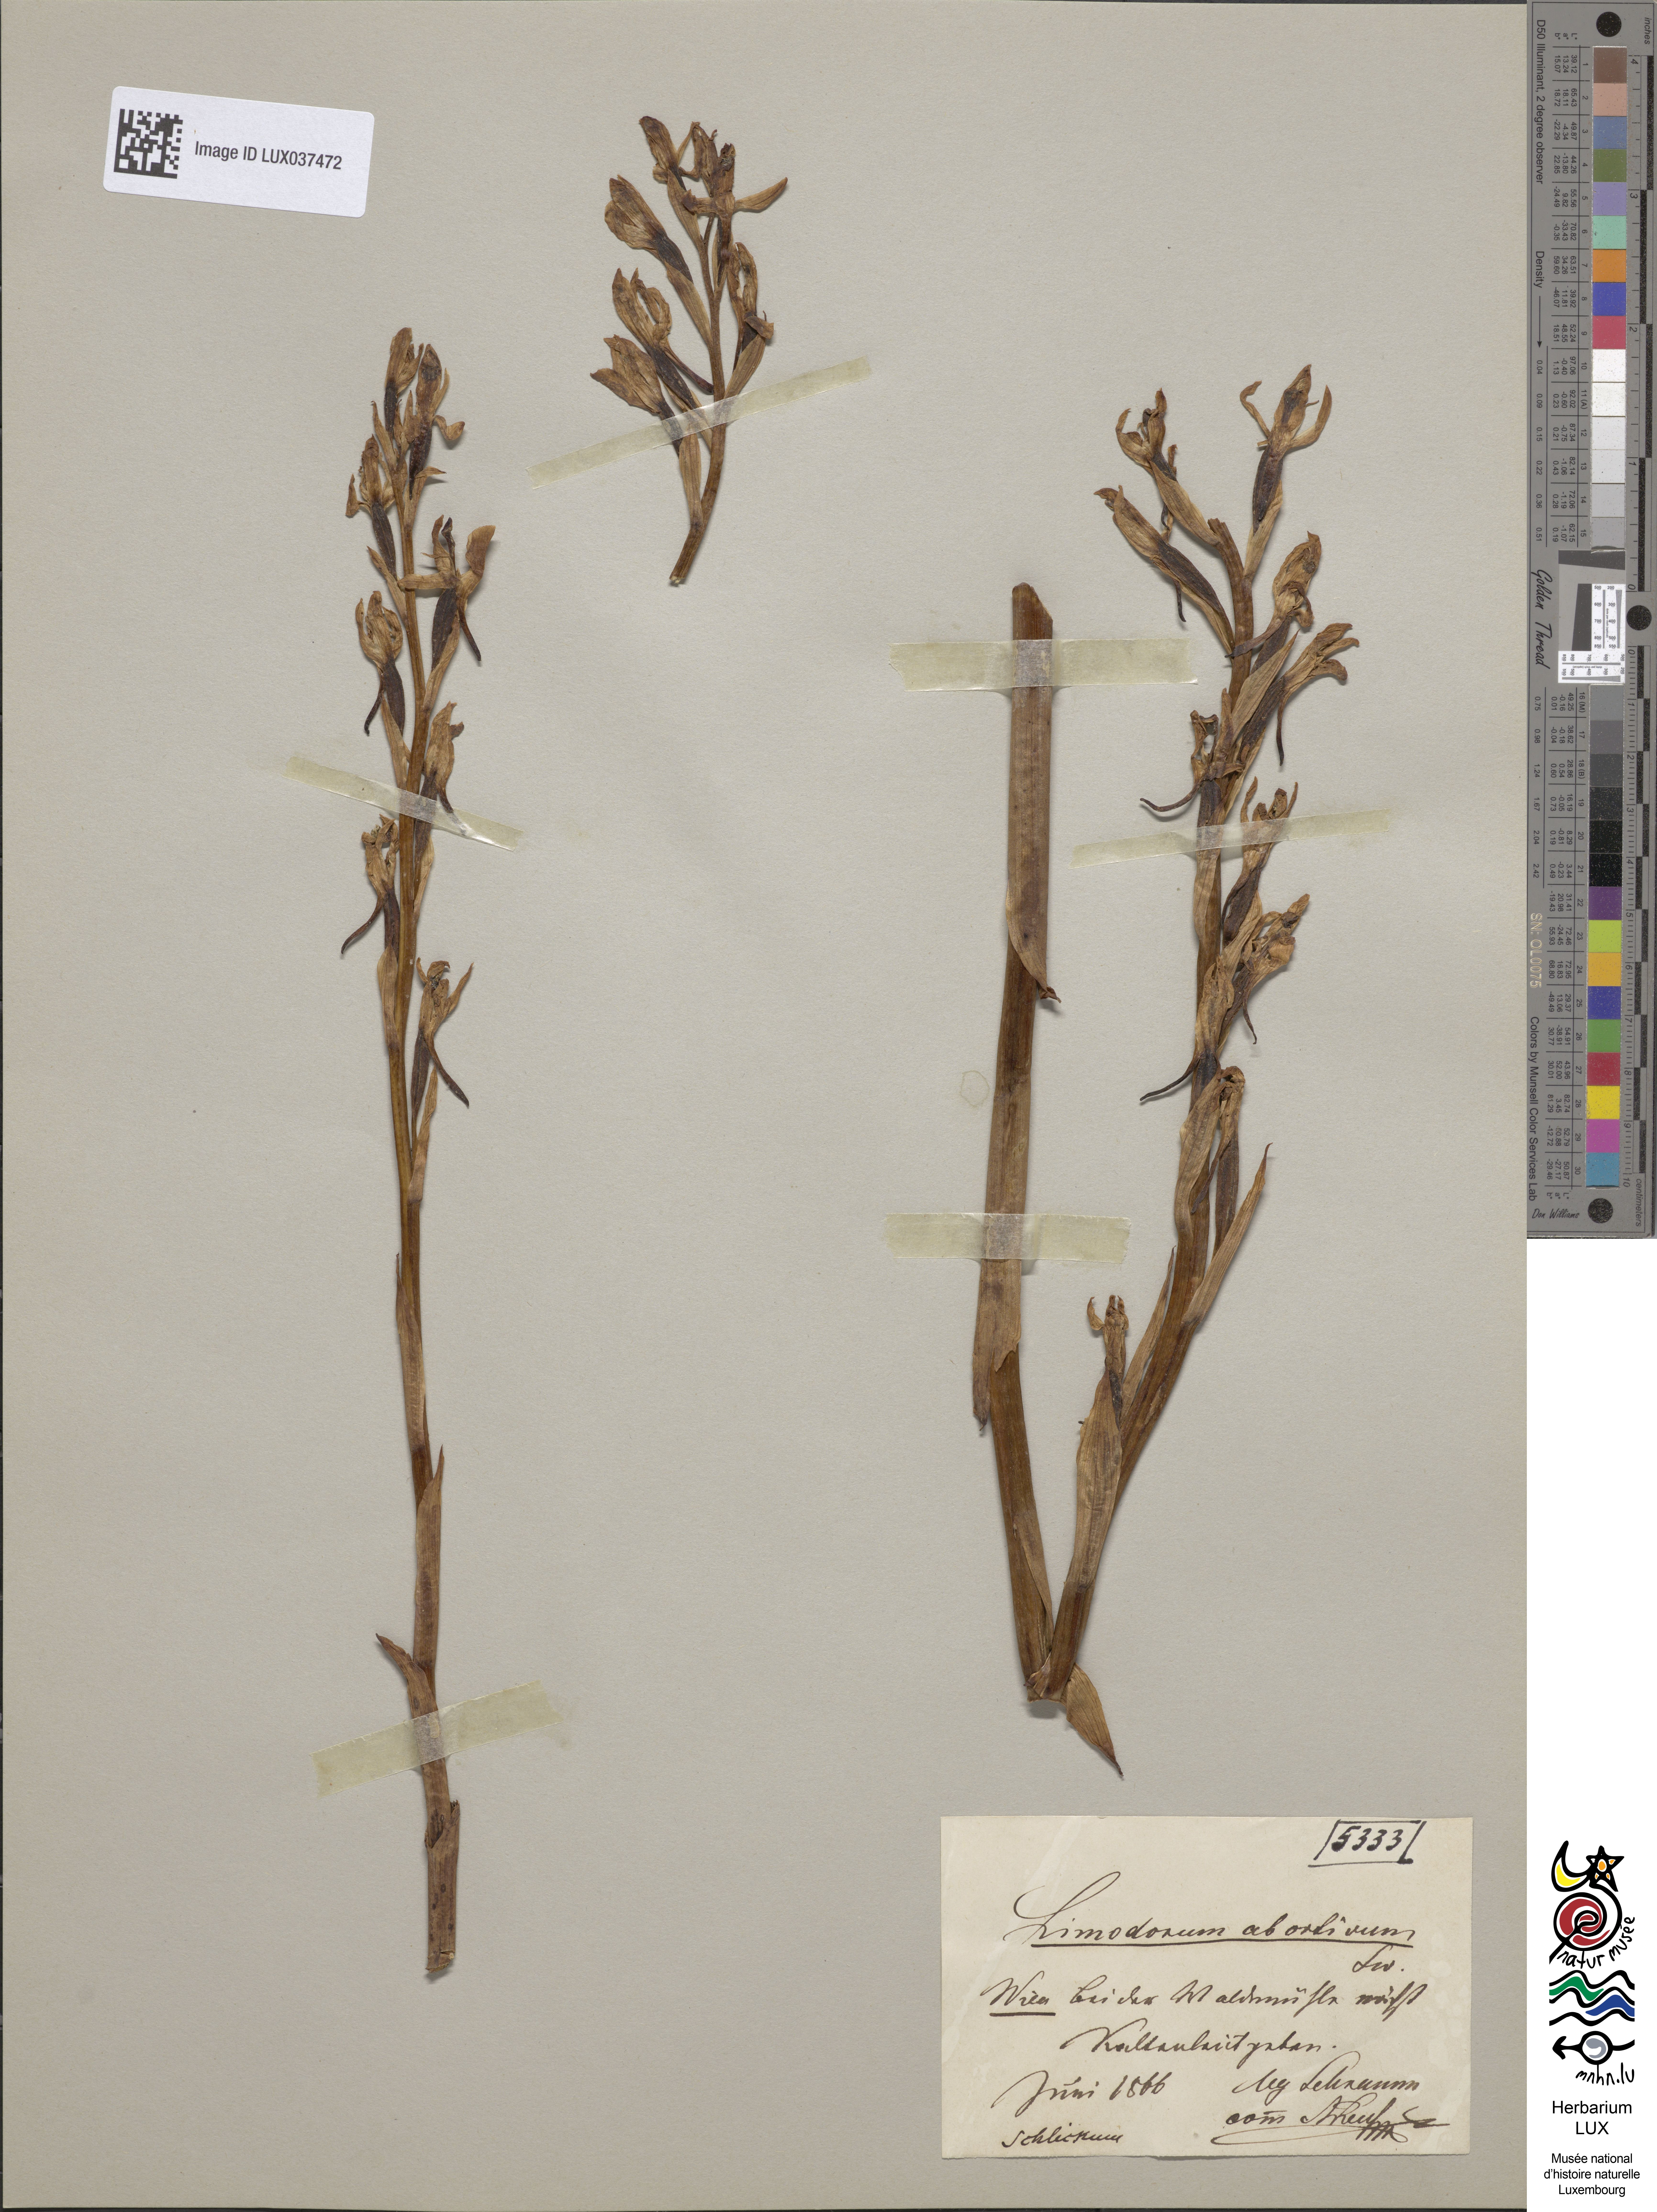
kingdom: Plantae
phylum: Tracheophyta
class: Liliopsida
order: Asparagales
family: Orchidaceae
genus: Limodorum
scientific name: Limodorum abortivum
